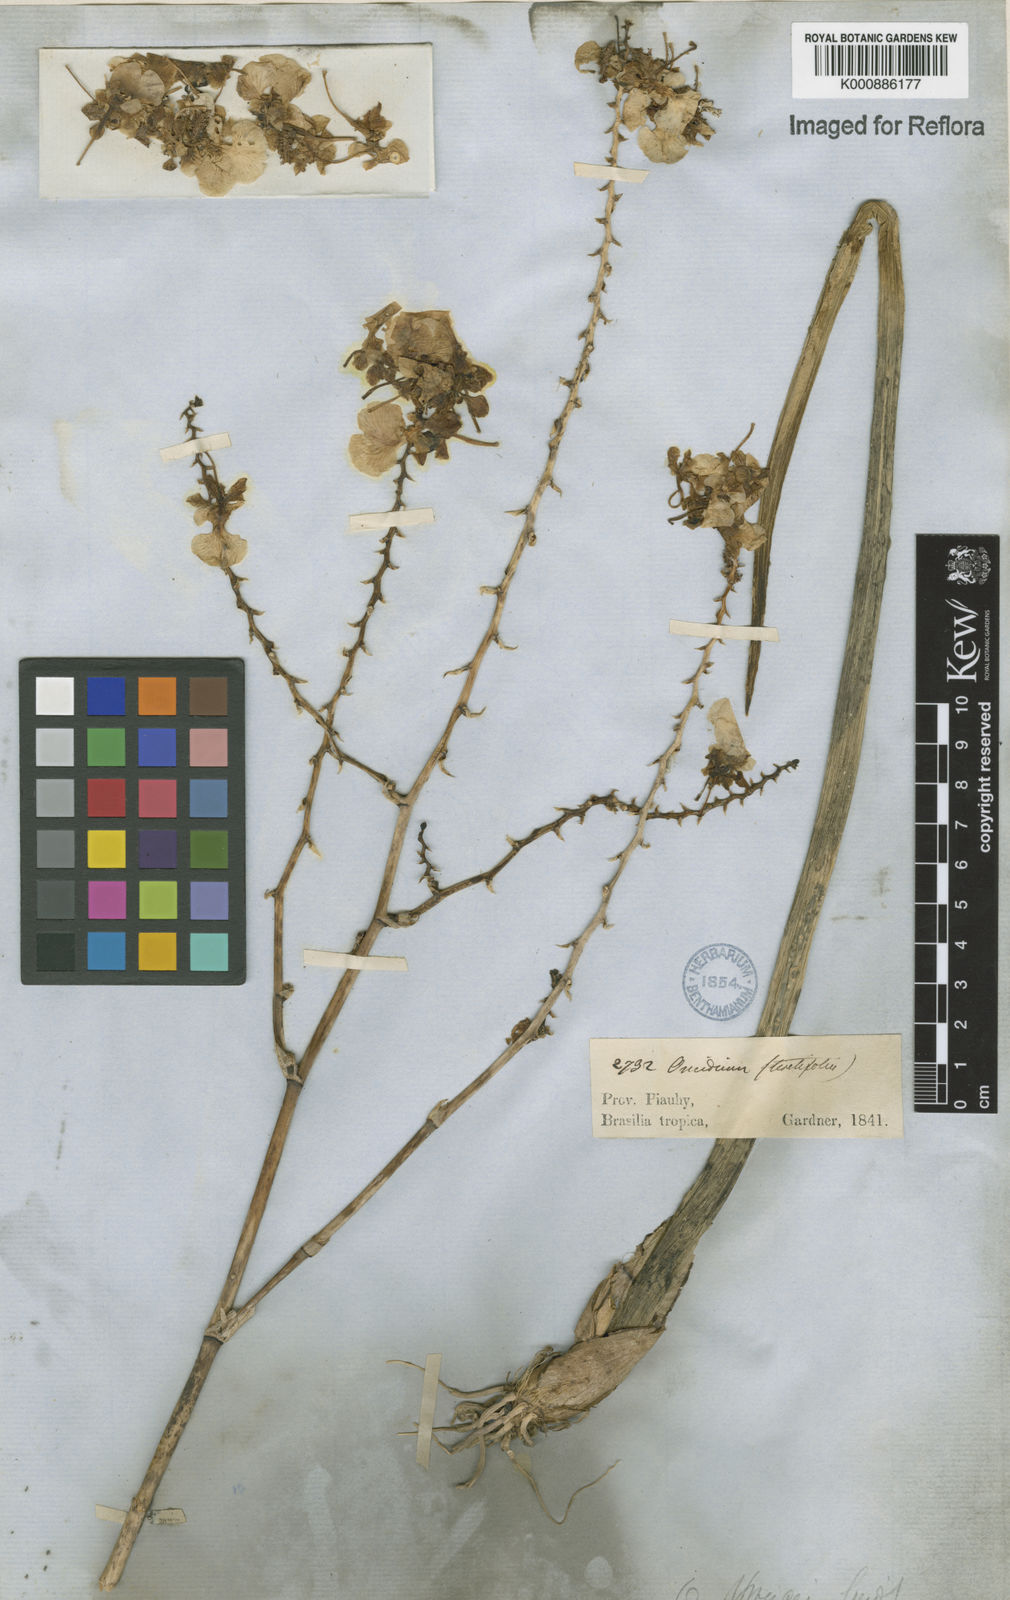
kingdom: Plantae
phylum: Tracheophyta
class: Liliopsida
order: Asparagales
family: Orchidaceae
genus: Trichocentrum
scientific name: Trichocentrum cebolleta
